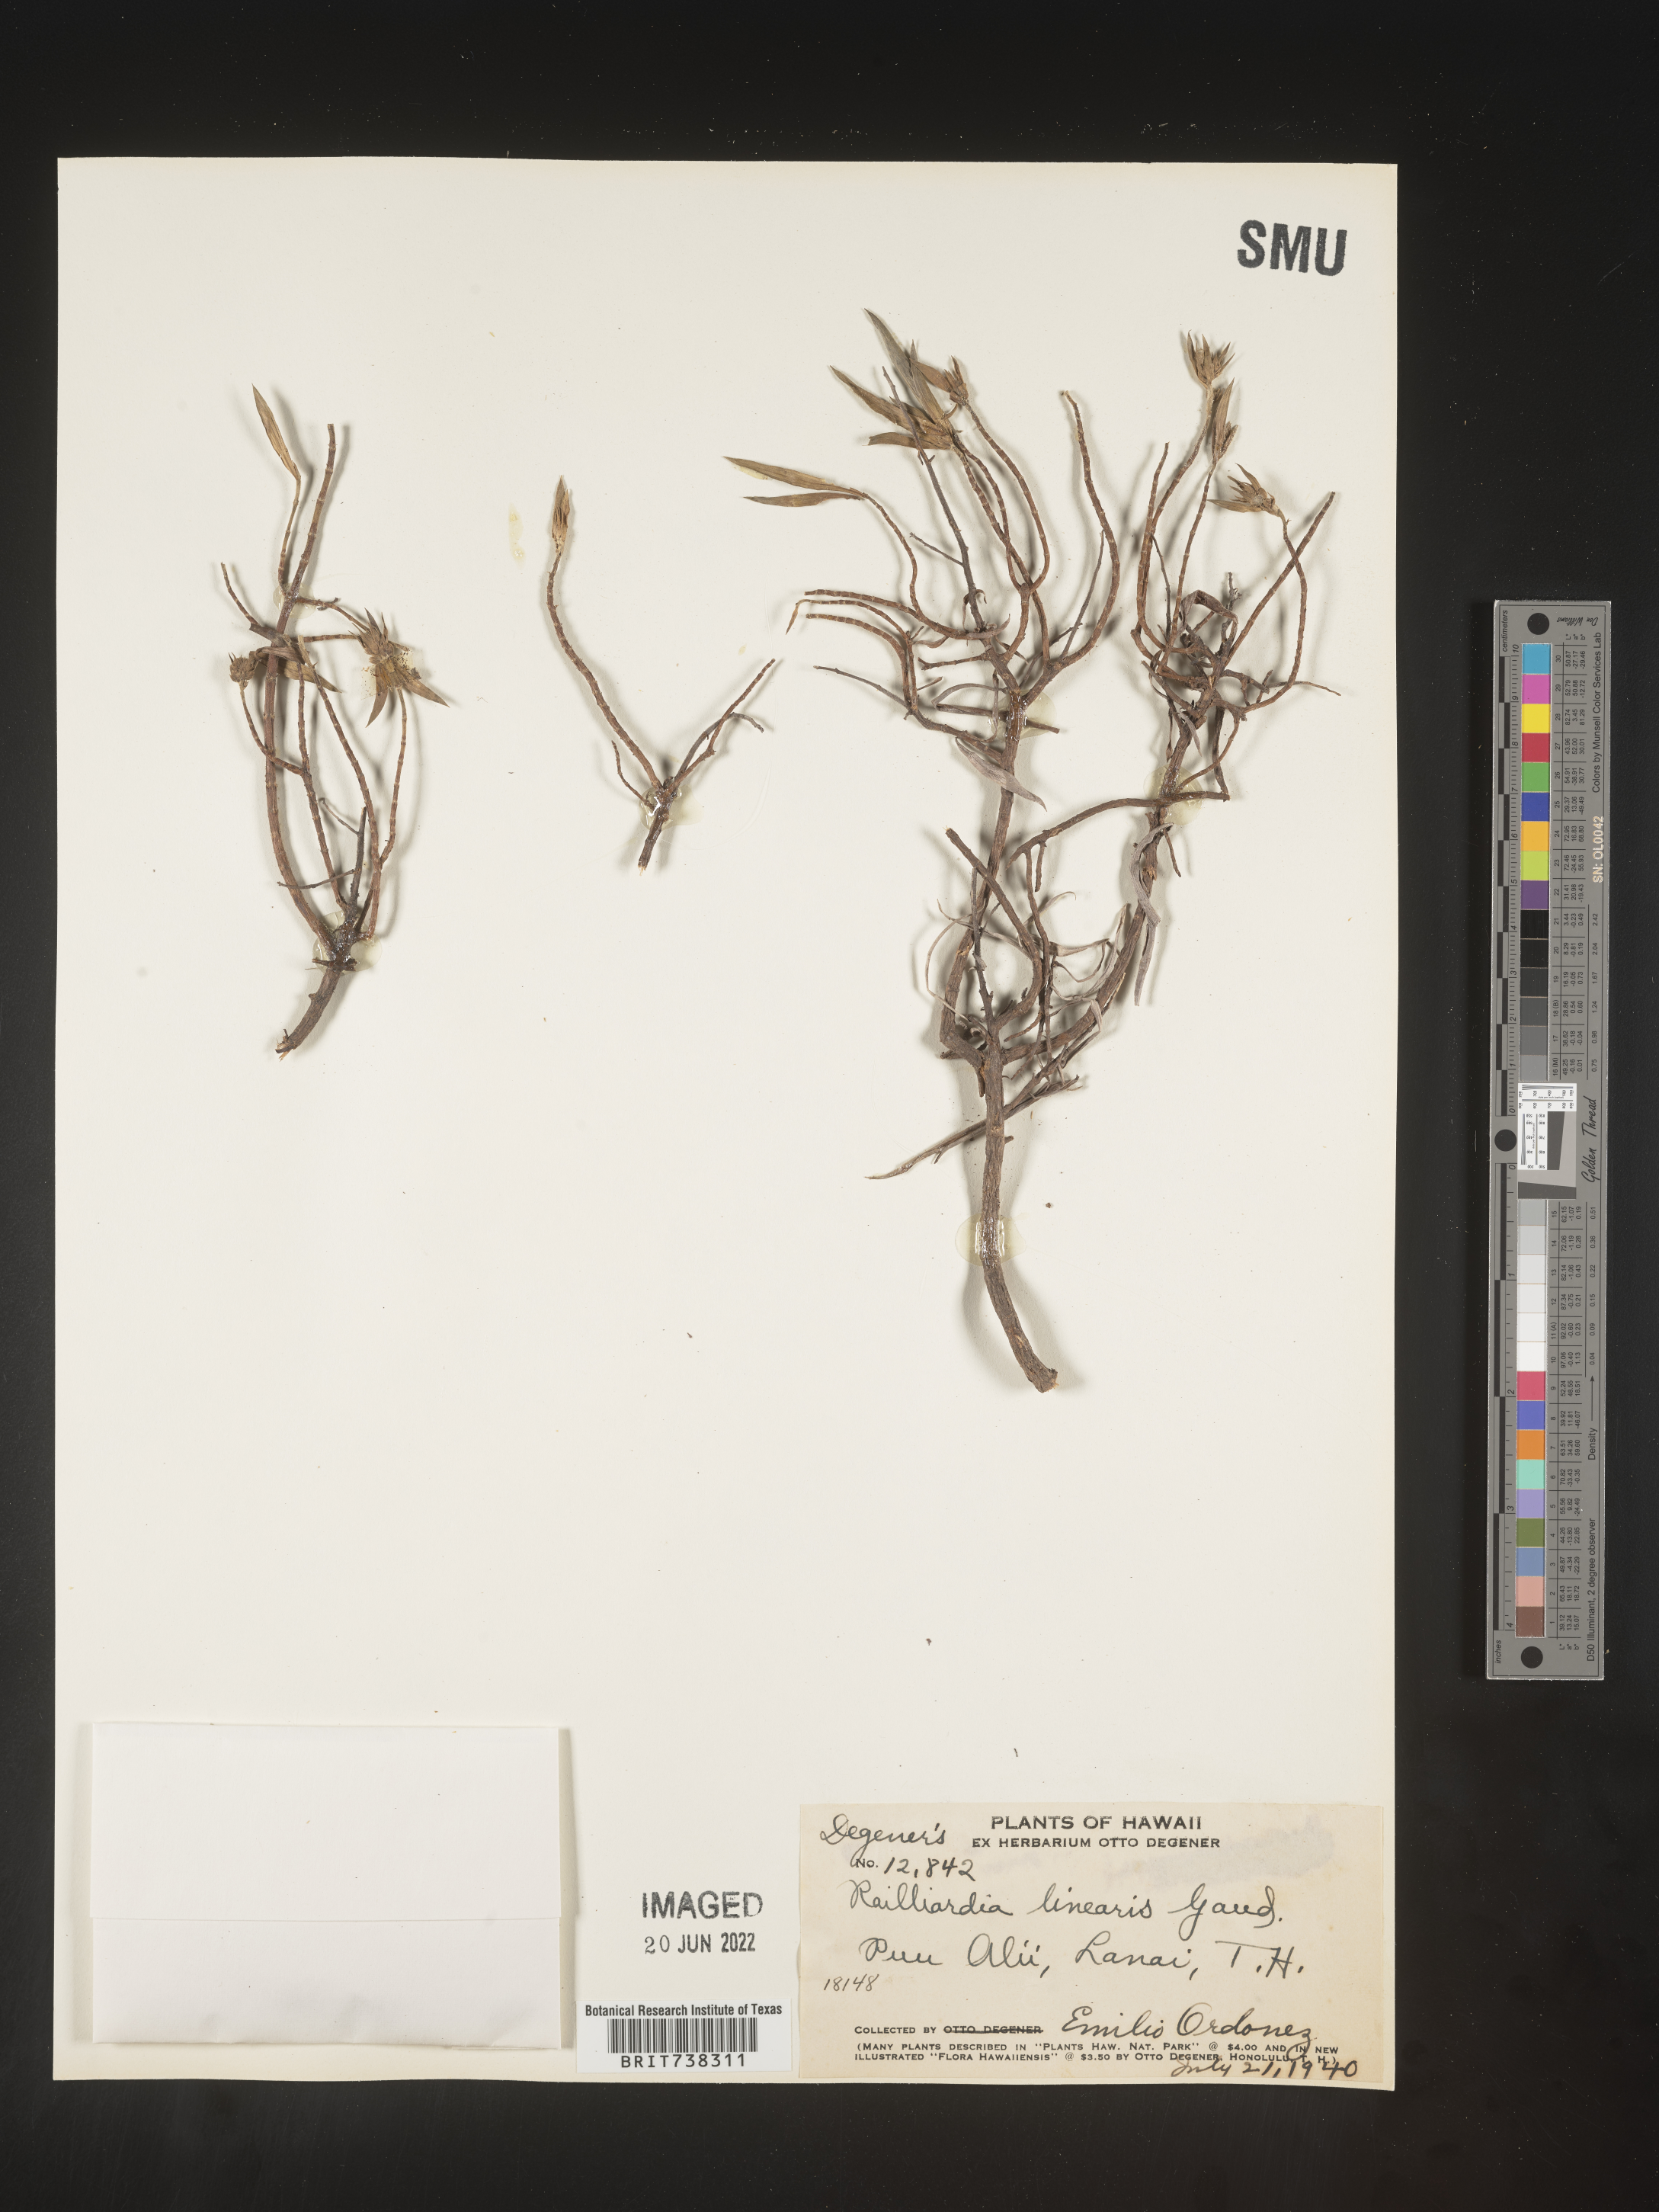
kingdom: Plantae
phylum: Tracheophyta
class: Magnoliopsida
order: Asterales
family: Asteraceae
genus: Dubautia
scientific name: Dubautia
